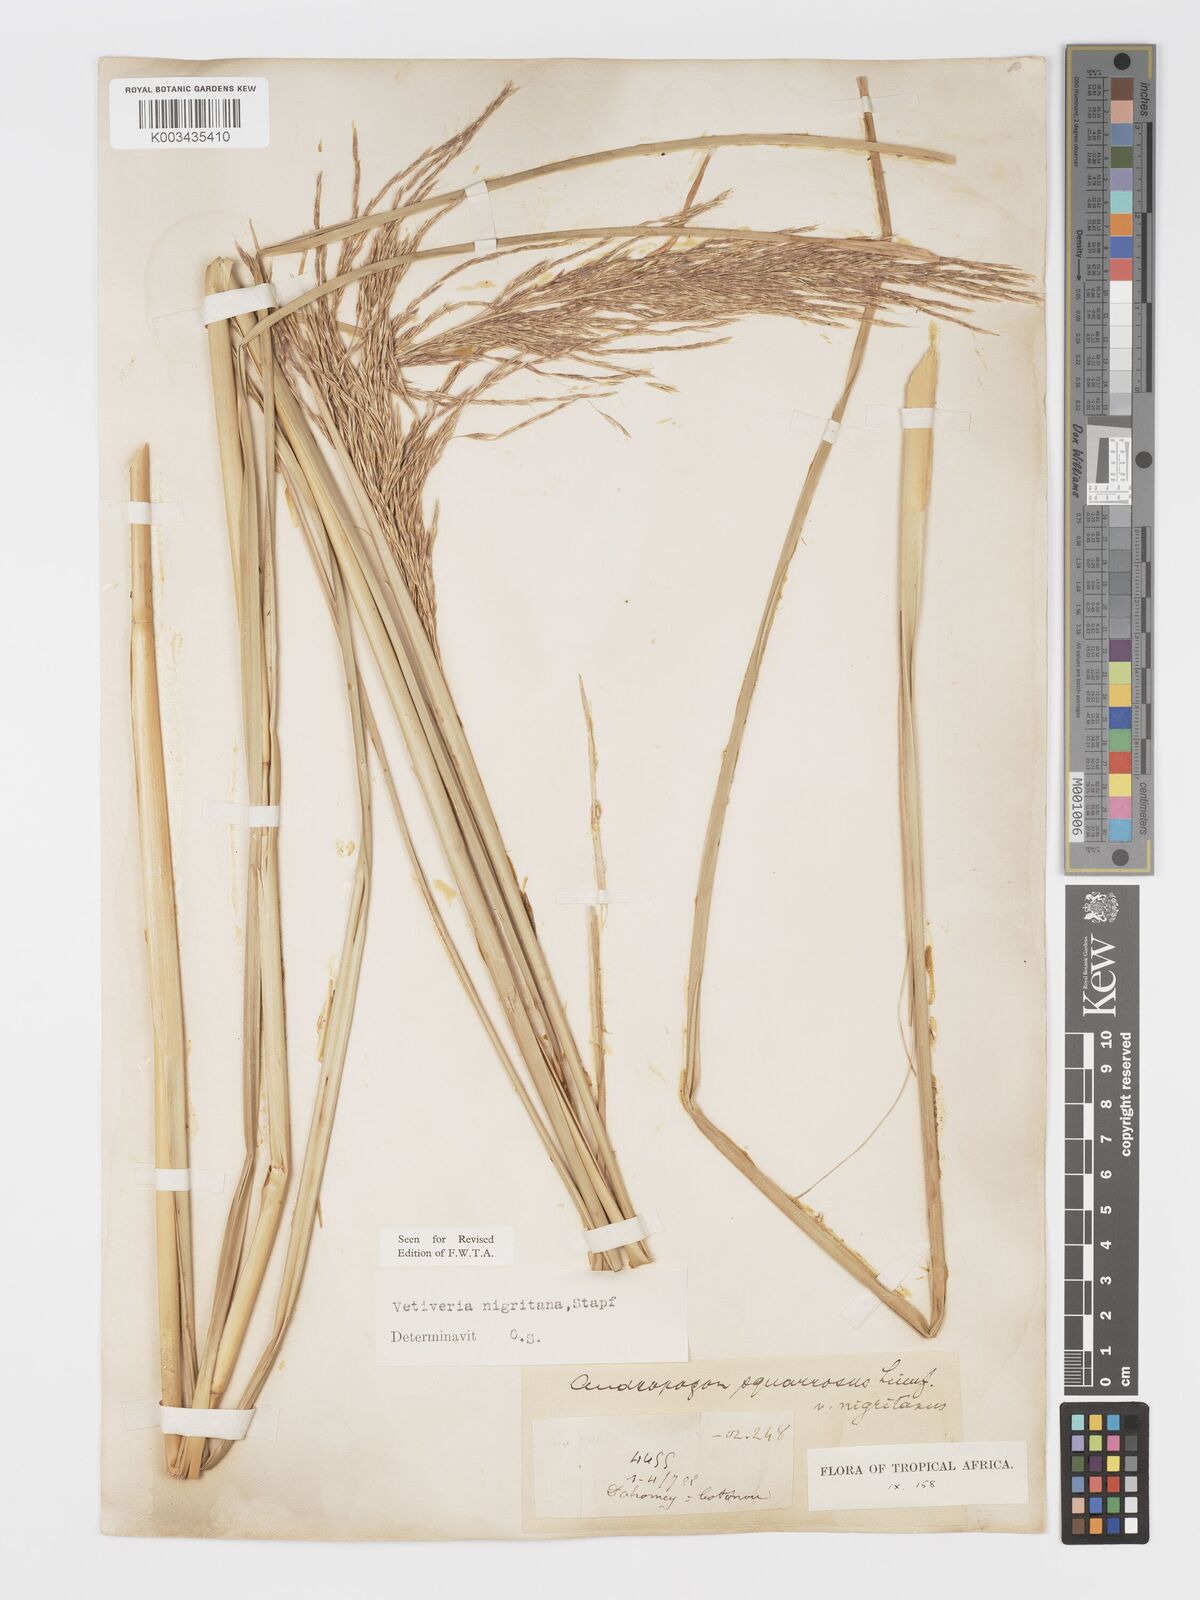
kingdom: Plantae
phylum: Tracheophyta
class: Liliopsida
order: Poales
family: Poaceae
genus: Chrysopogon
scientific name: Chrysopogon nigritanus
